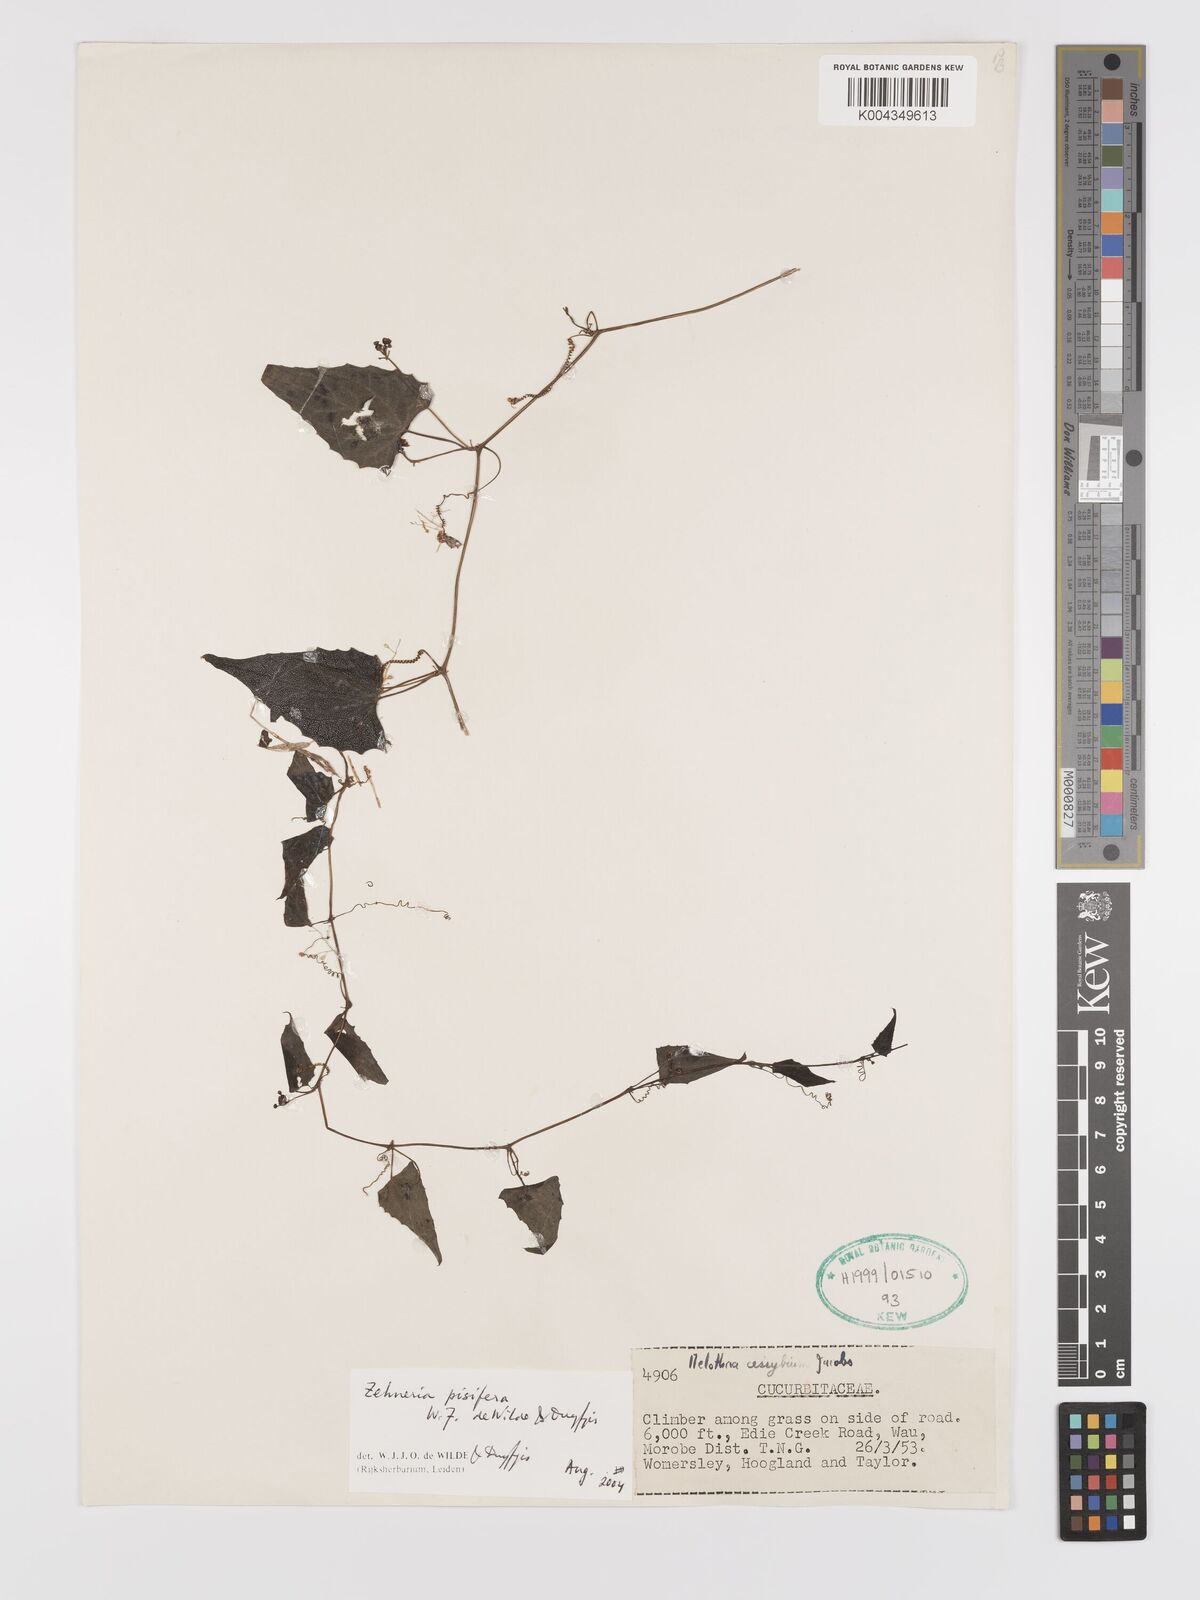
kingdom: Plantae
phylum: Tracheophyta
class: Magnoliopsida
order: Cucurbitales
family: Cucurbitaceae
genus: Zehneria
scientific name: Zehneria pisifera
